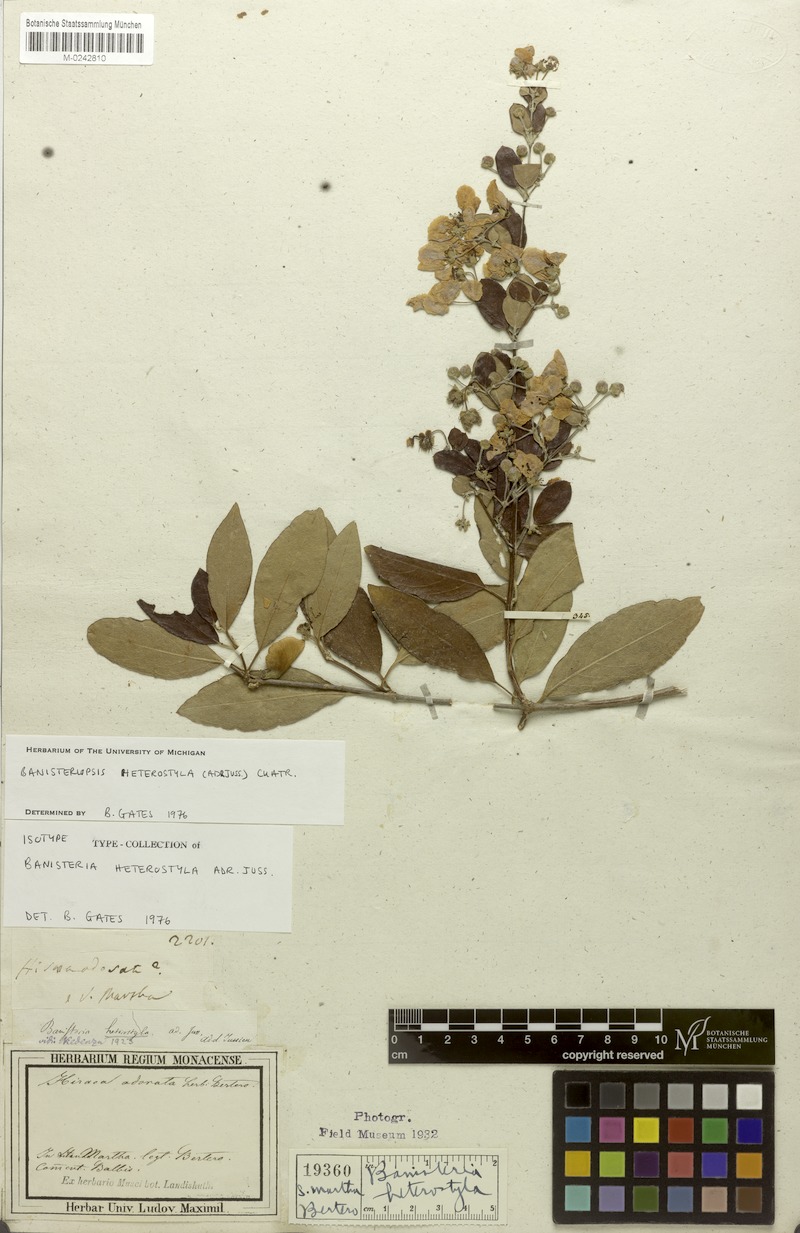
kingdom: Plantae
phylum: Tracheophyta
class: Magnoliopsida
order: Malpighiales
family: Malpighiaceae
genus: Diplopterys
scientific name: Diplopterys heterostyla
